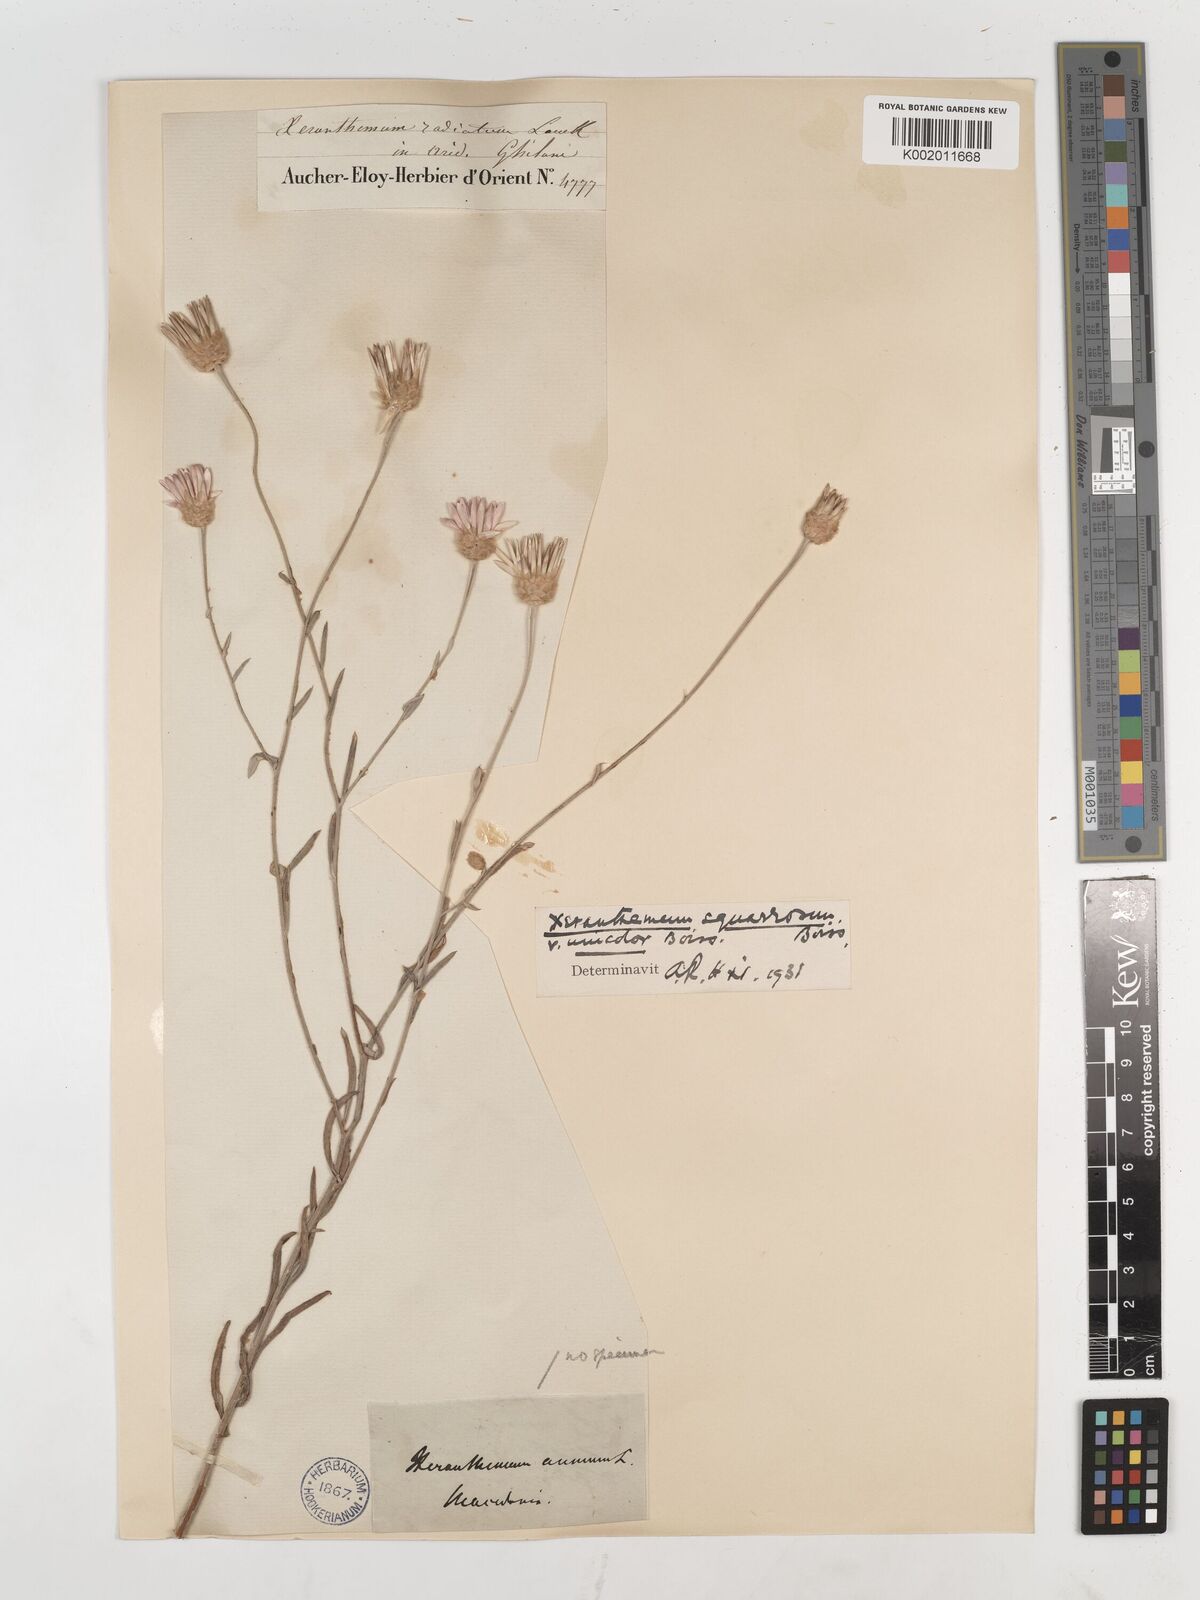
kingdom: Plantae
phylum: Tracheophyta
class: Magnoliopsida
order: Asterales
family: Asteraceae
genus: Xeranthemum
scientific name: Xeranthemum squarrosum
